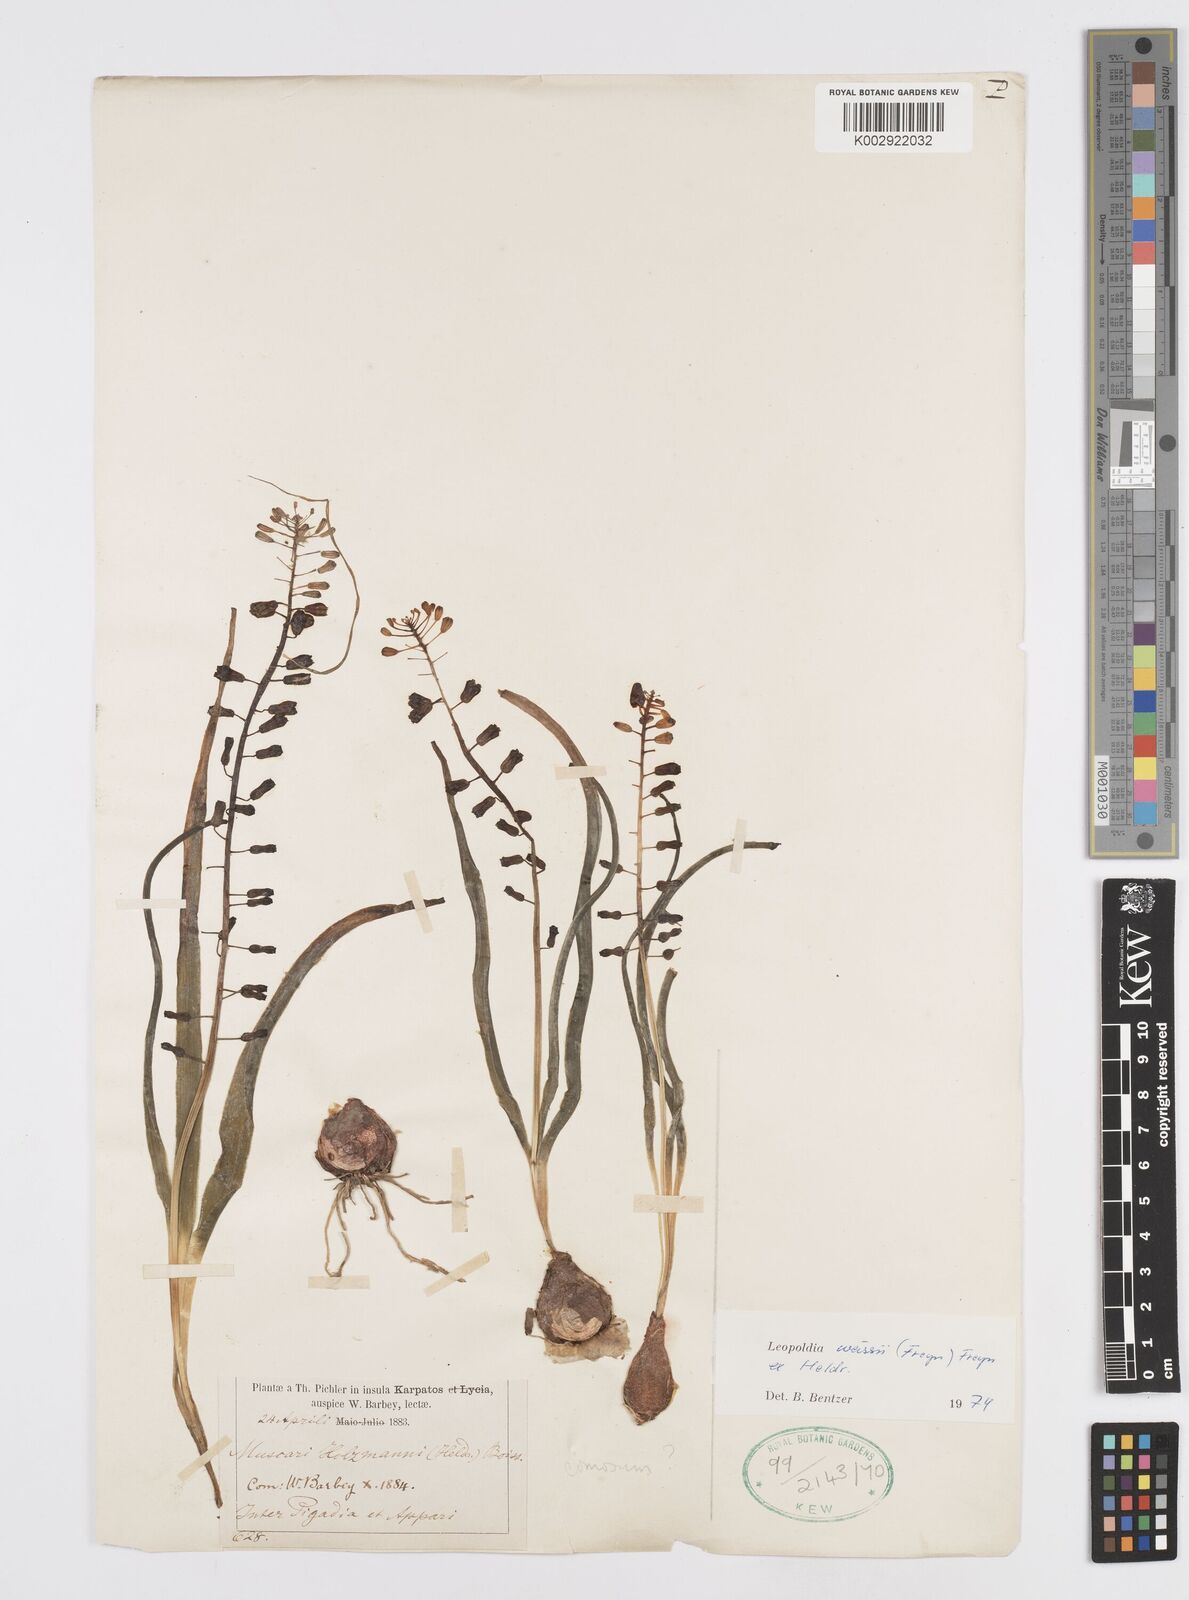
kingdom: Plantae
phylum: Tracheophyta
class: Liliopsida
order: Asparagales
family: Asparagaceae
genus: Muscari
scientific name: Muscari weissii
